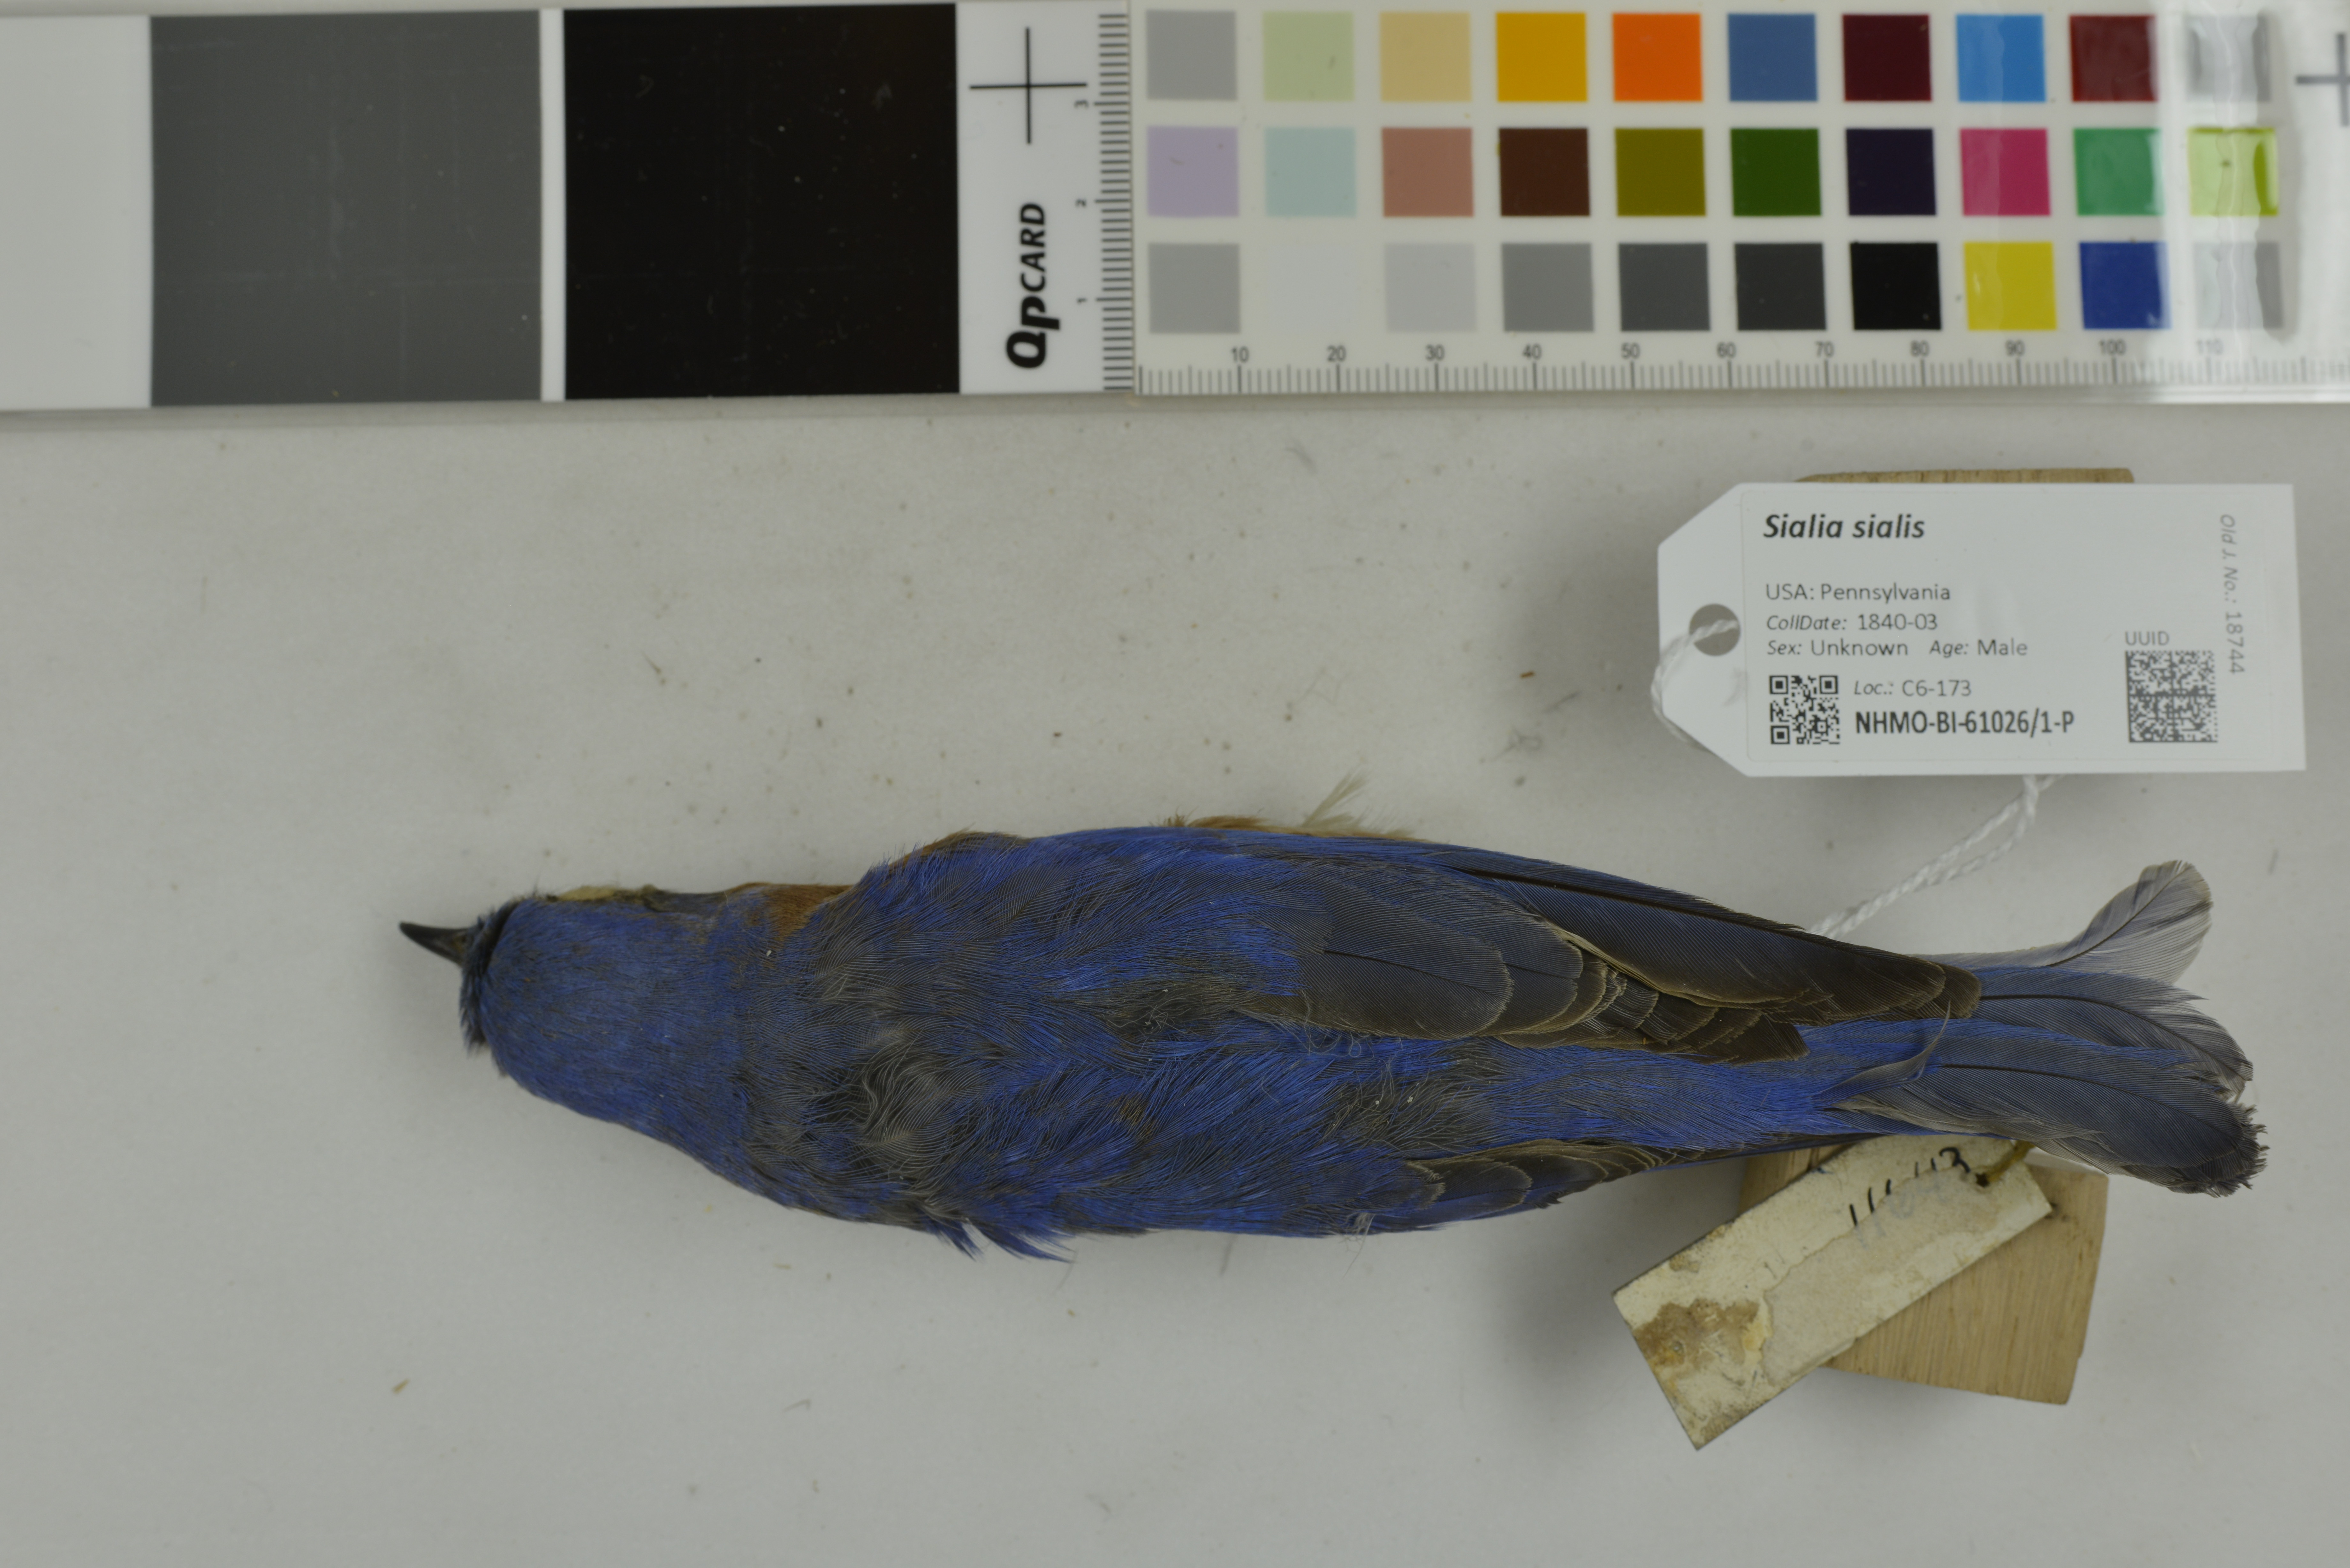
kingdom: Animalia
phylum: Chordata
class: Aves
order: Passeriformes
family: Turdidae
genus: Sialia
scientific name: Sialia sialis
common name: Eastern bluebird
